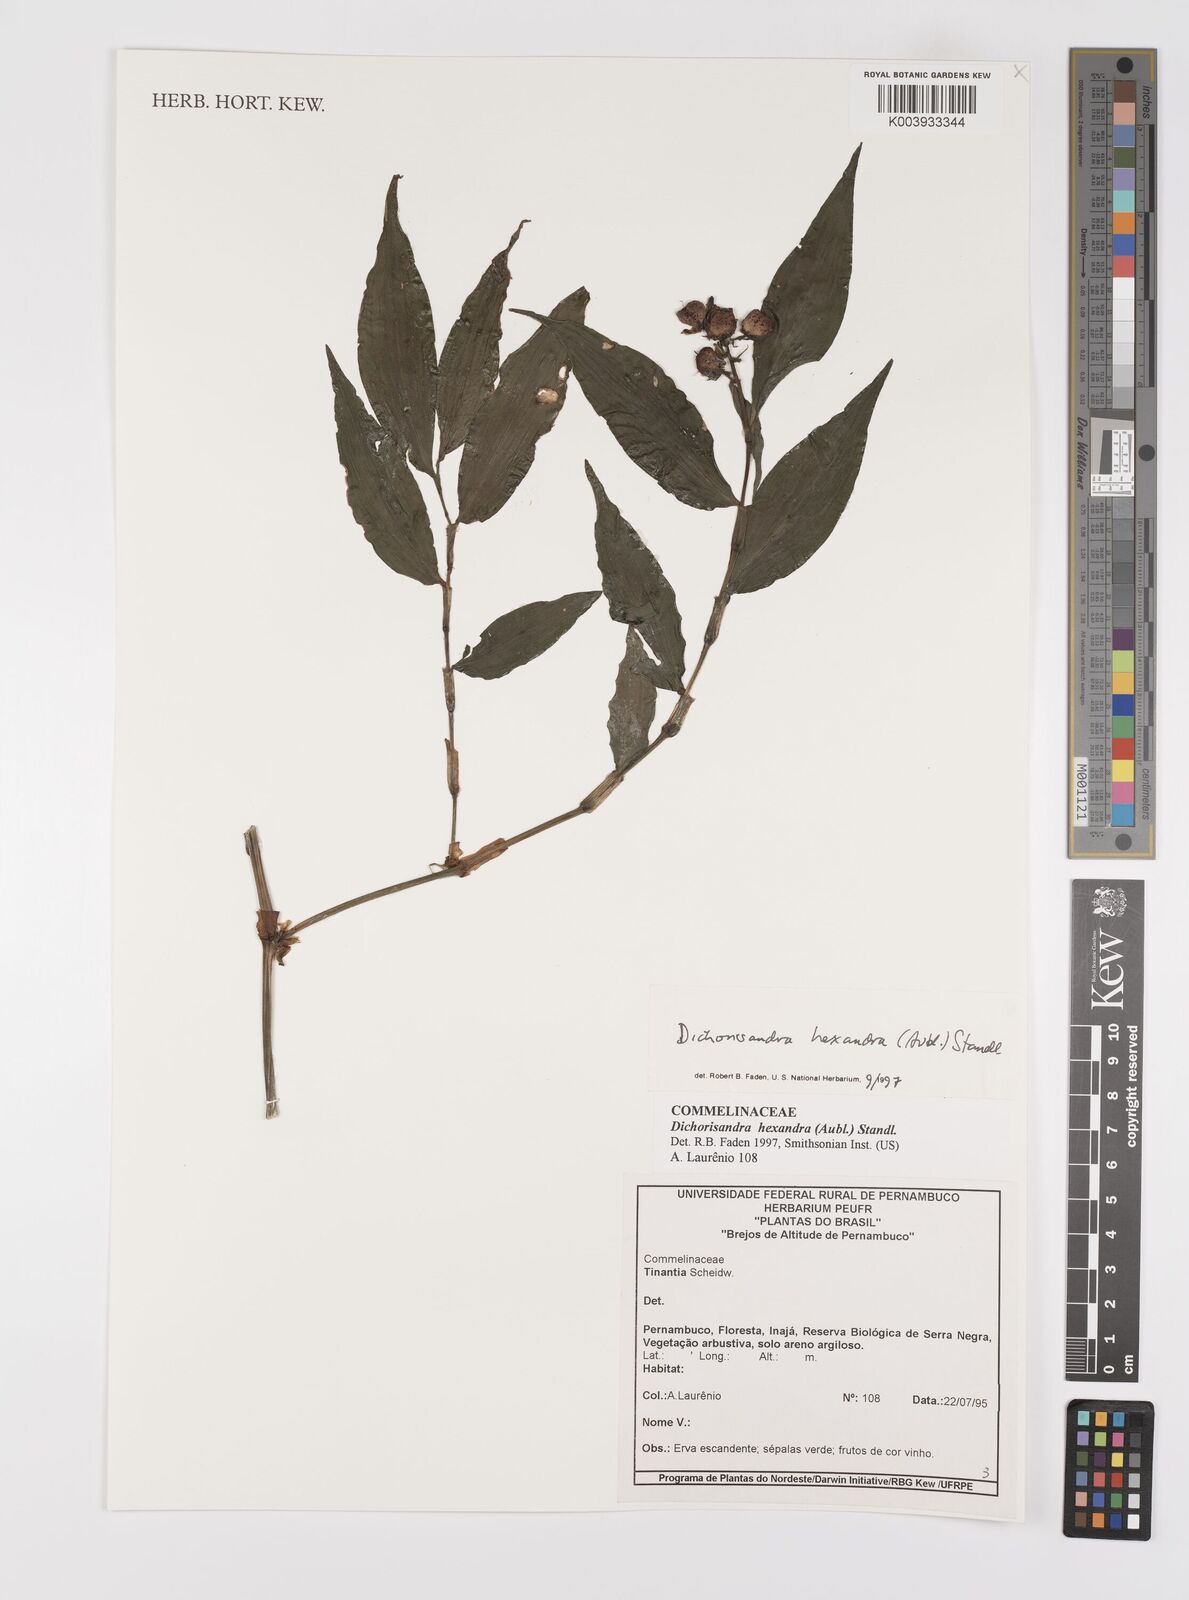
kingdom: Plantae
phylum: Tracheophyta
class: Liliopsida
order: Commelinales
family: Commelinaceae
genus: Dichorisandra
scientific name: Dichorisandra
